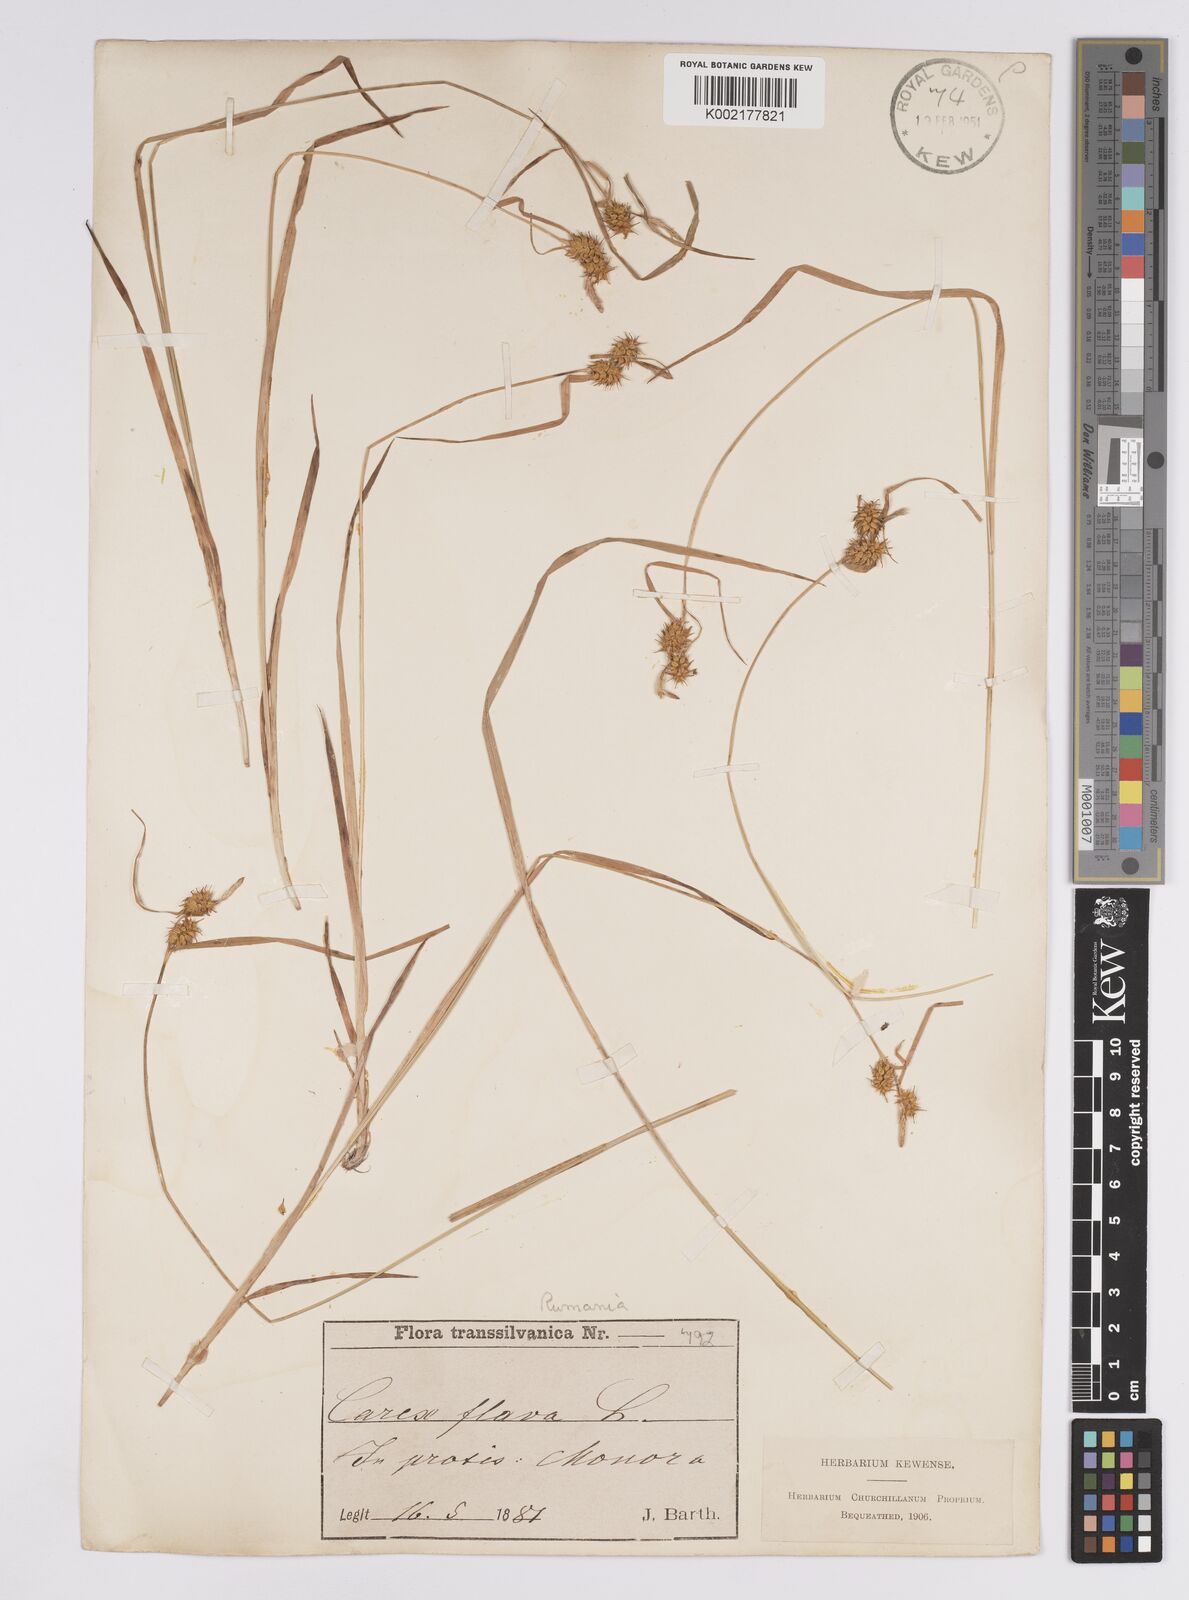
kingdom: Plantae
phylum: Tracheophyta
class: Liliopsida
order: Poales
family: Cyperaceae
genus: Carex
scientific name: Carex flava
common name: Large yellow-sedge
